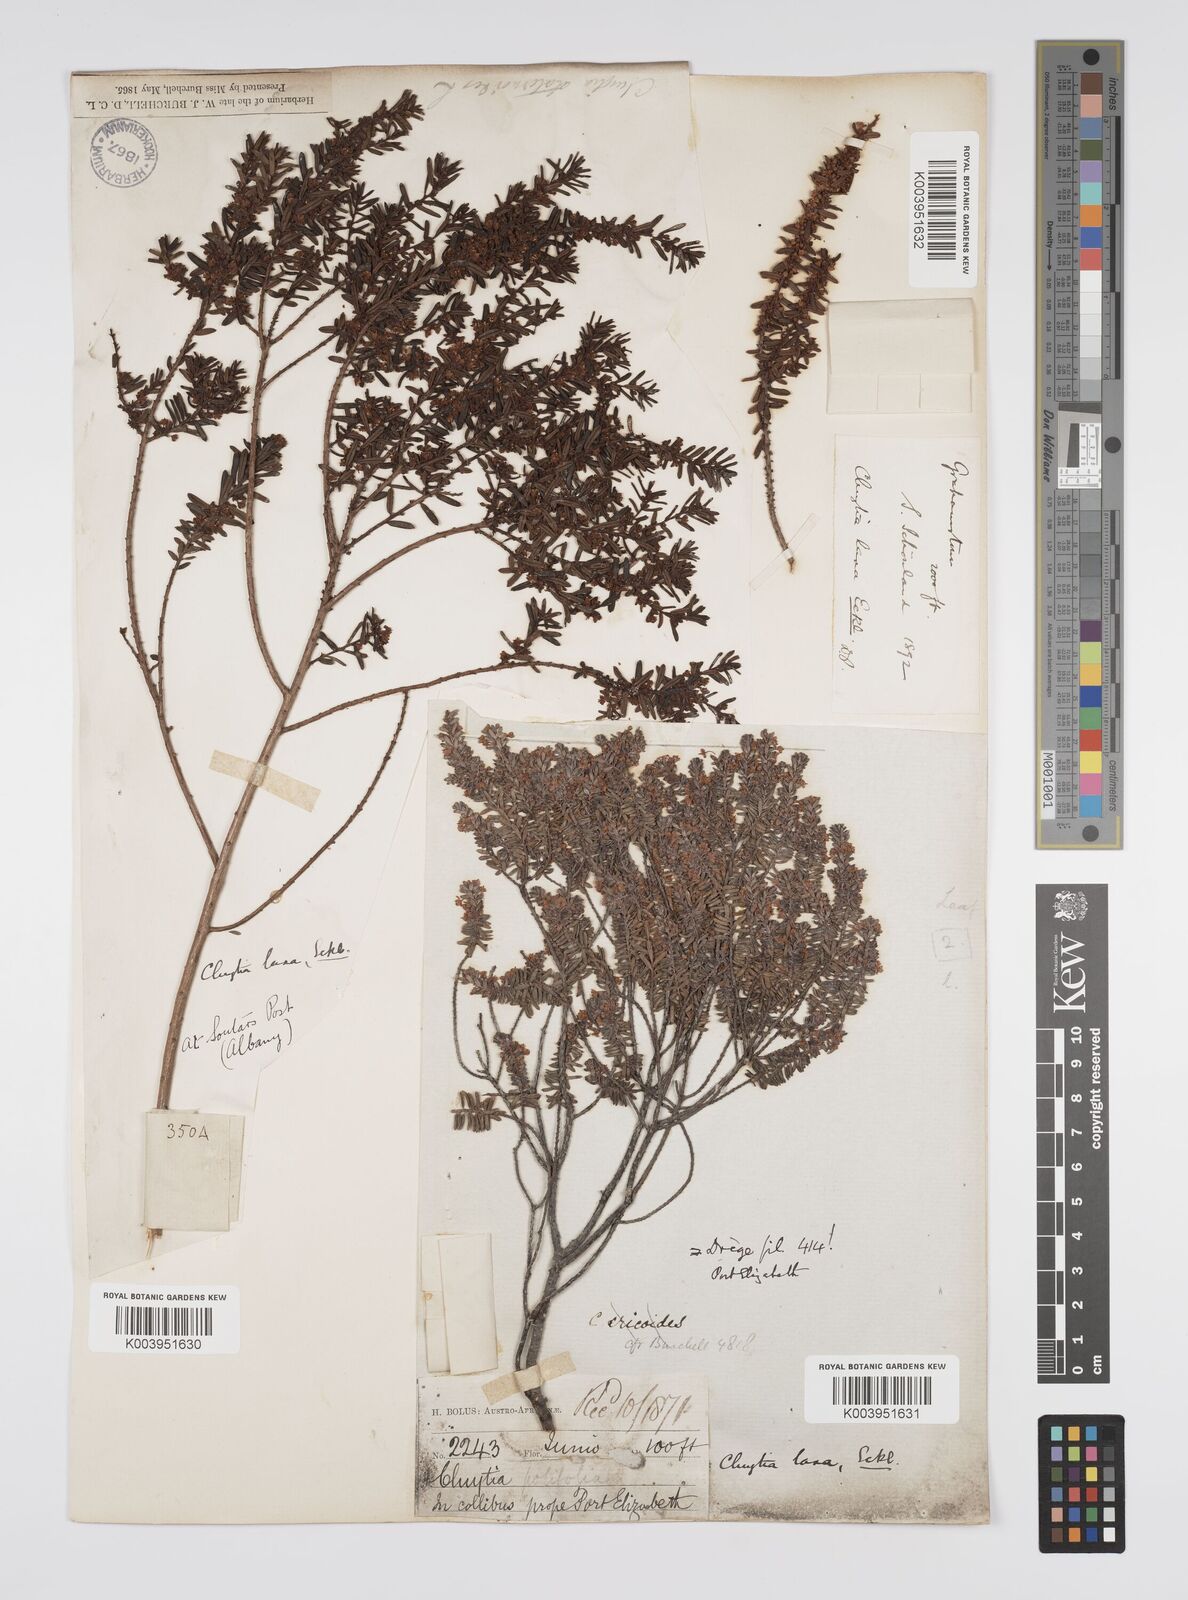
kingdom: Plantae
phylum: Tracheophyta
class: Magnoliopsida
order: Malpighiales
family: Peraceae
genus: Clutia
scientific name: Clutia laxa
